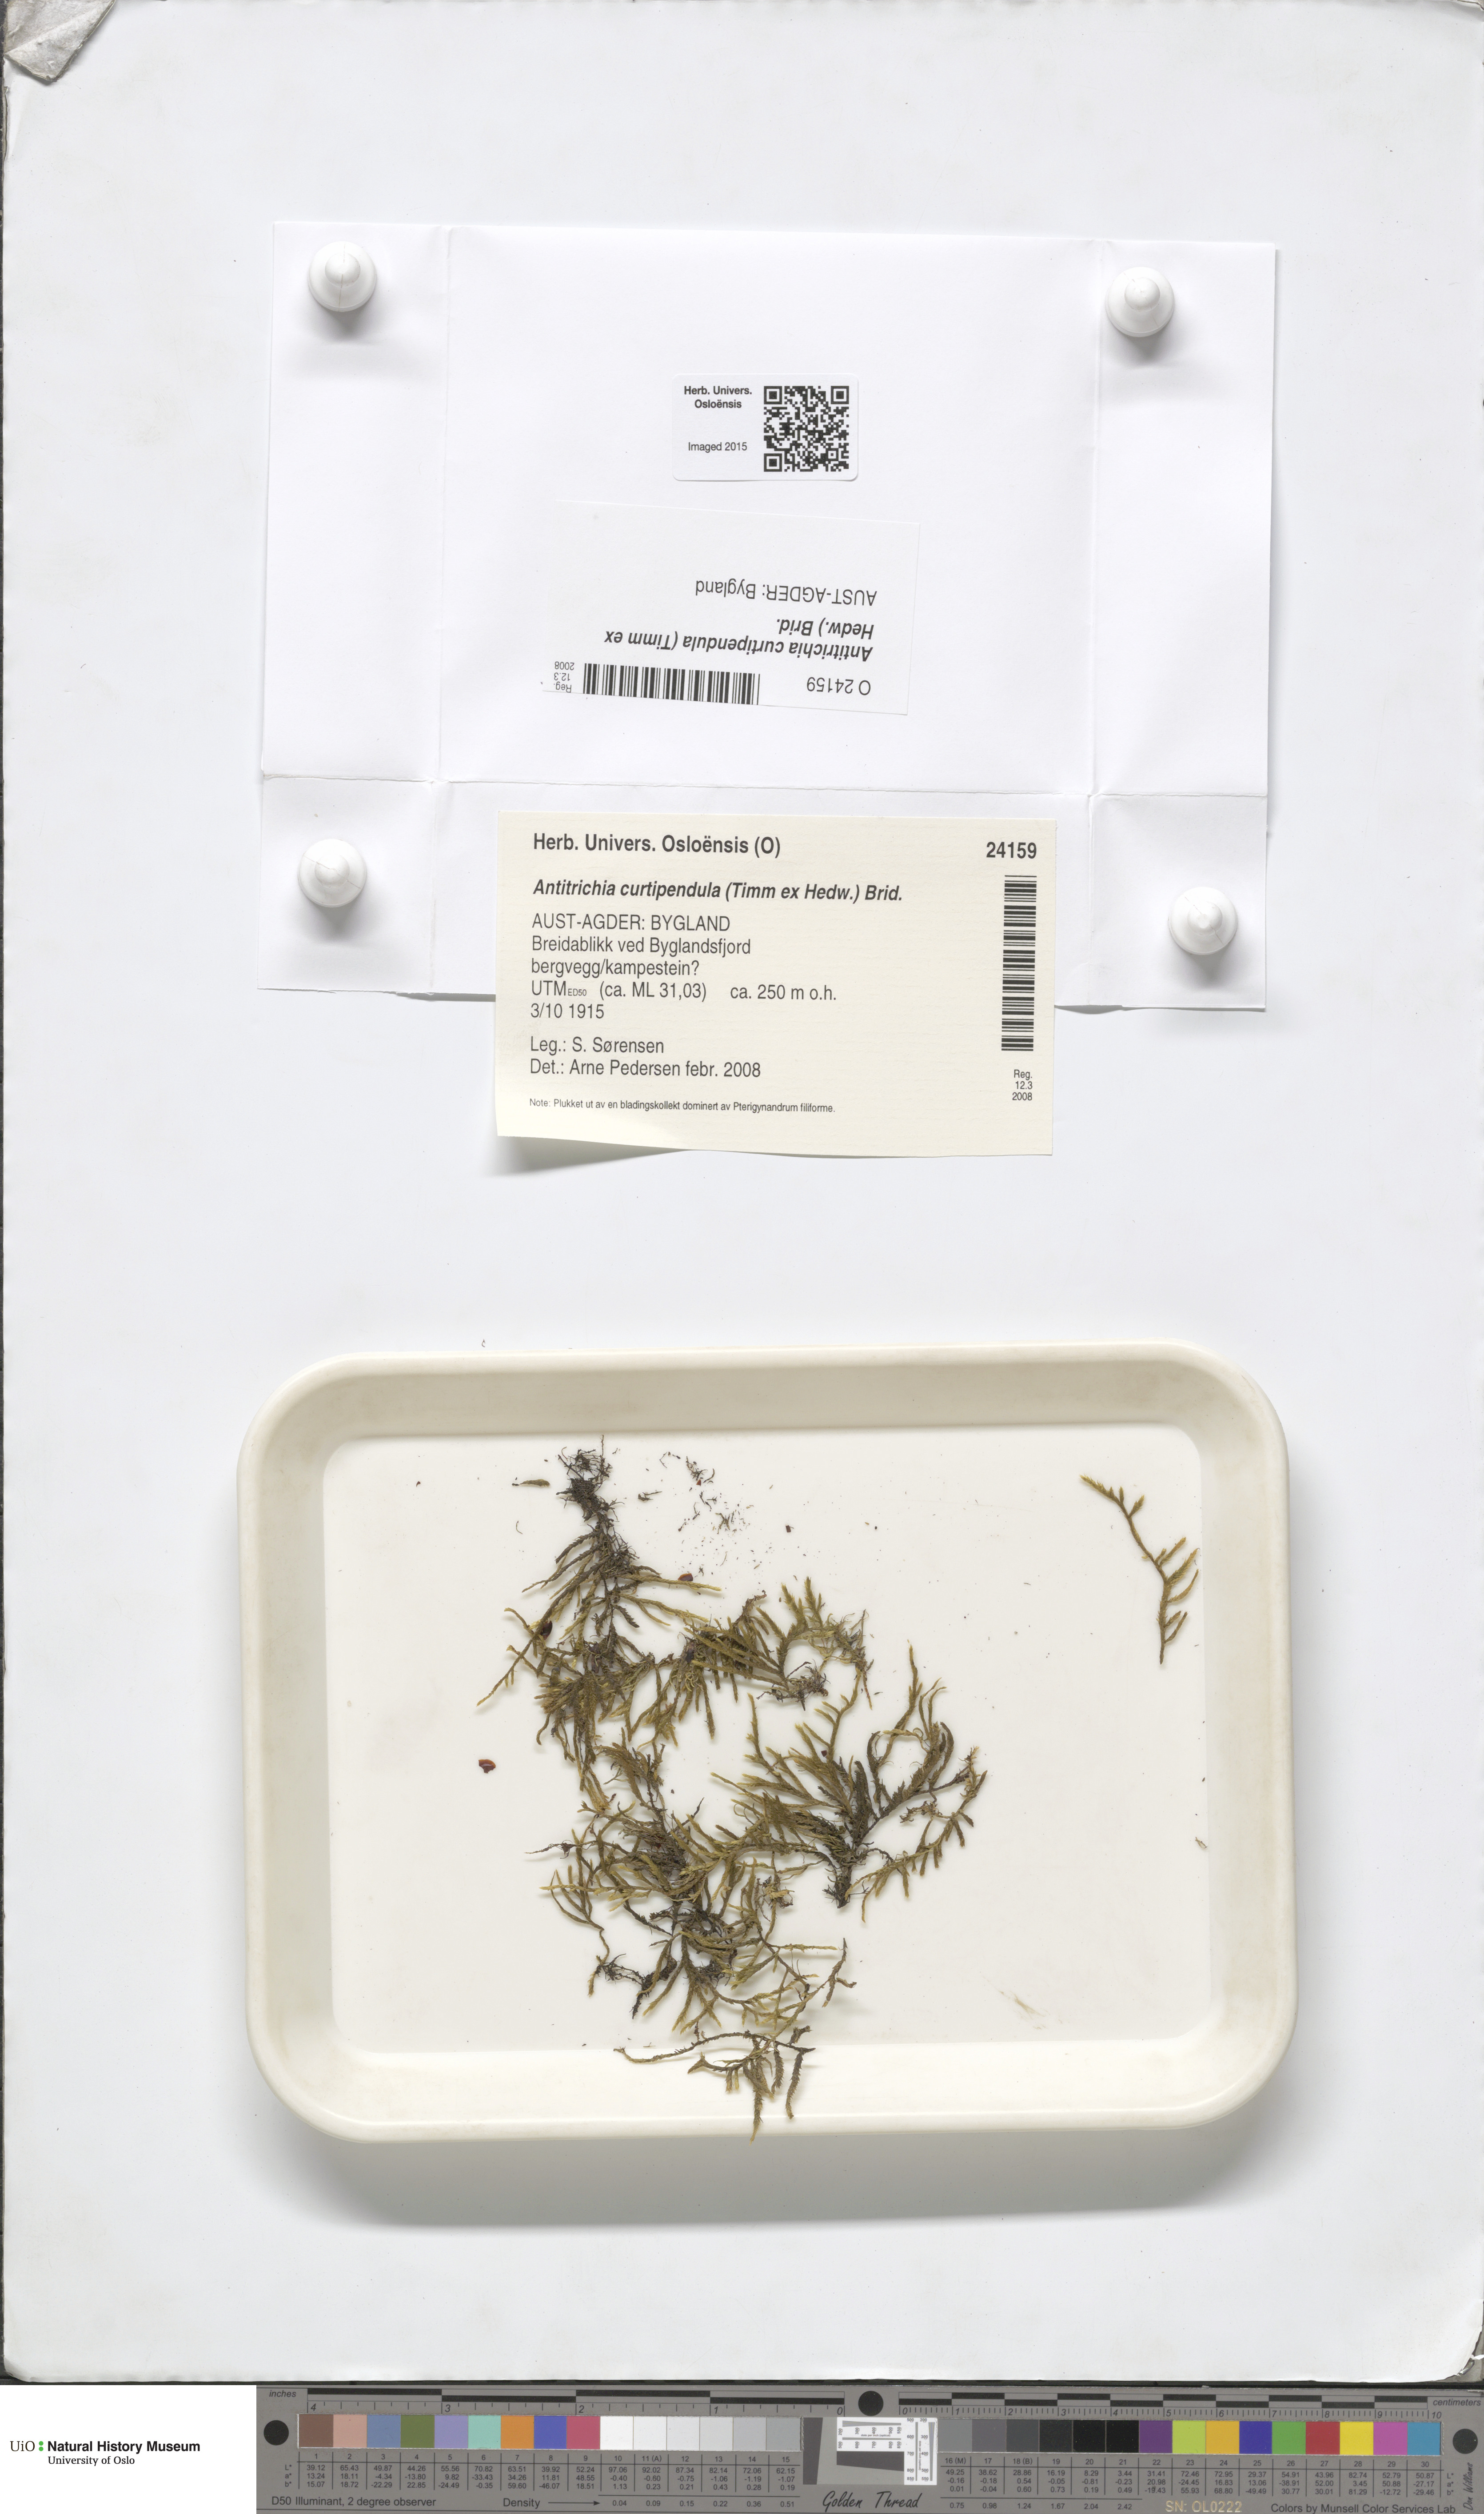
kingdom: Plantae
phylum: Bryophyta
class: Bryopsida
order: Hypnales
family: Antitrichiaceae
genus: Antitrichia
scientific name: Antitrichia curtipendula
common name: Pendulous wing-moss
